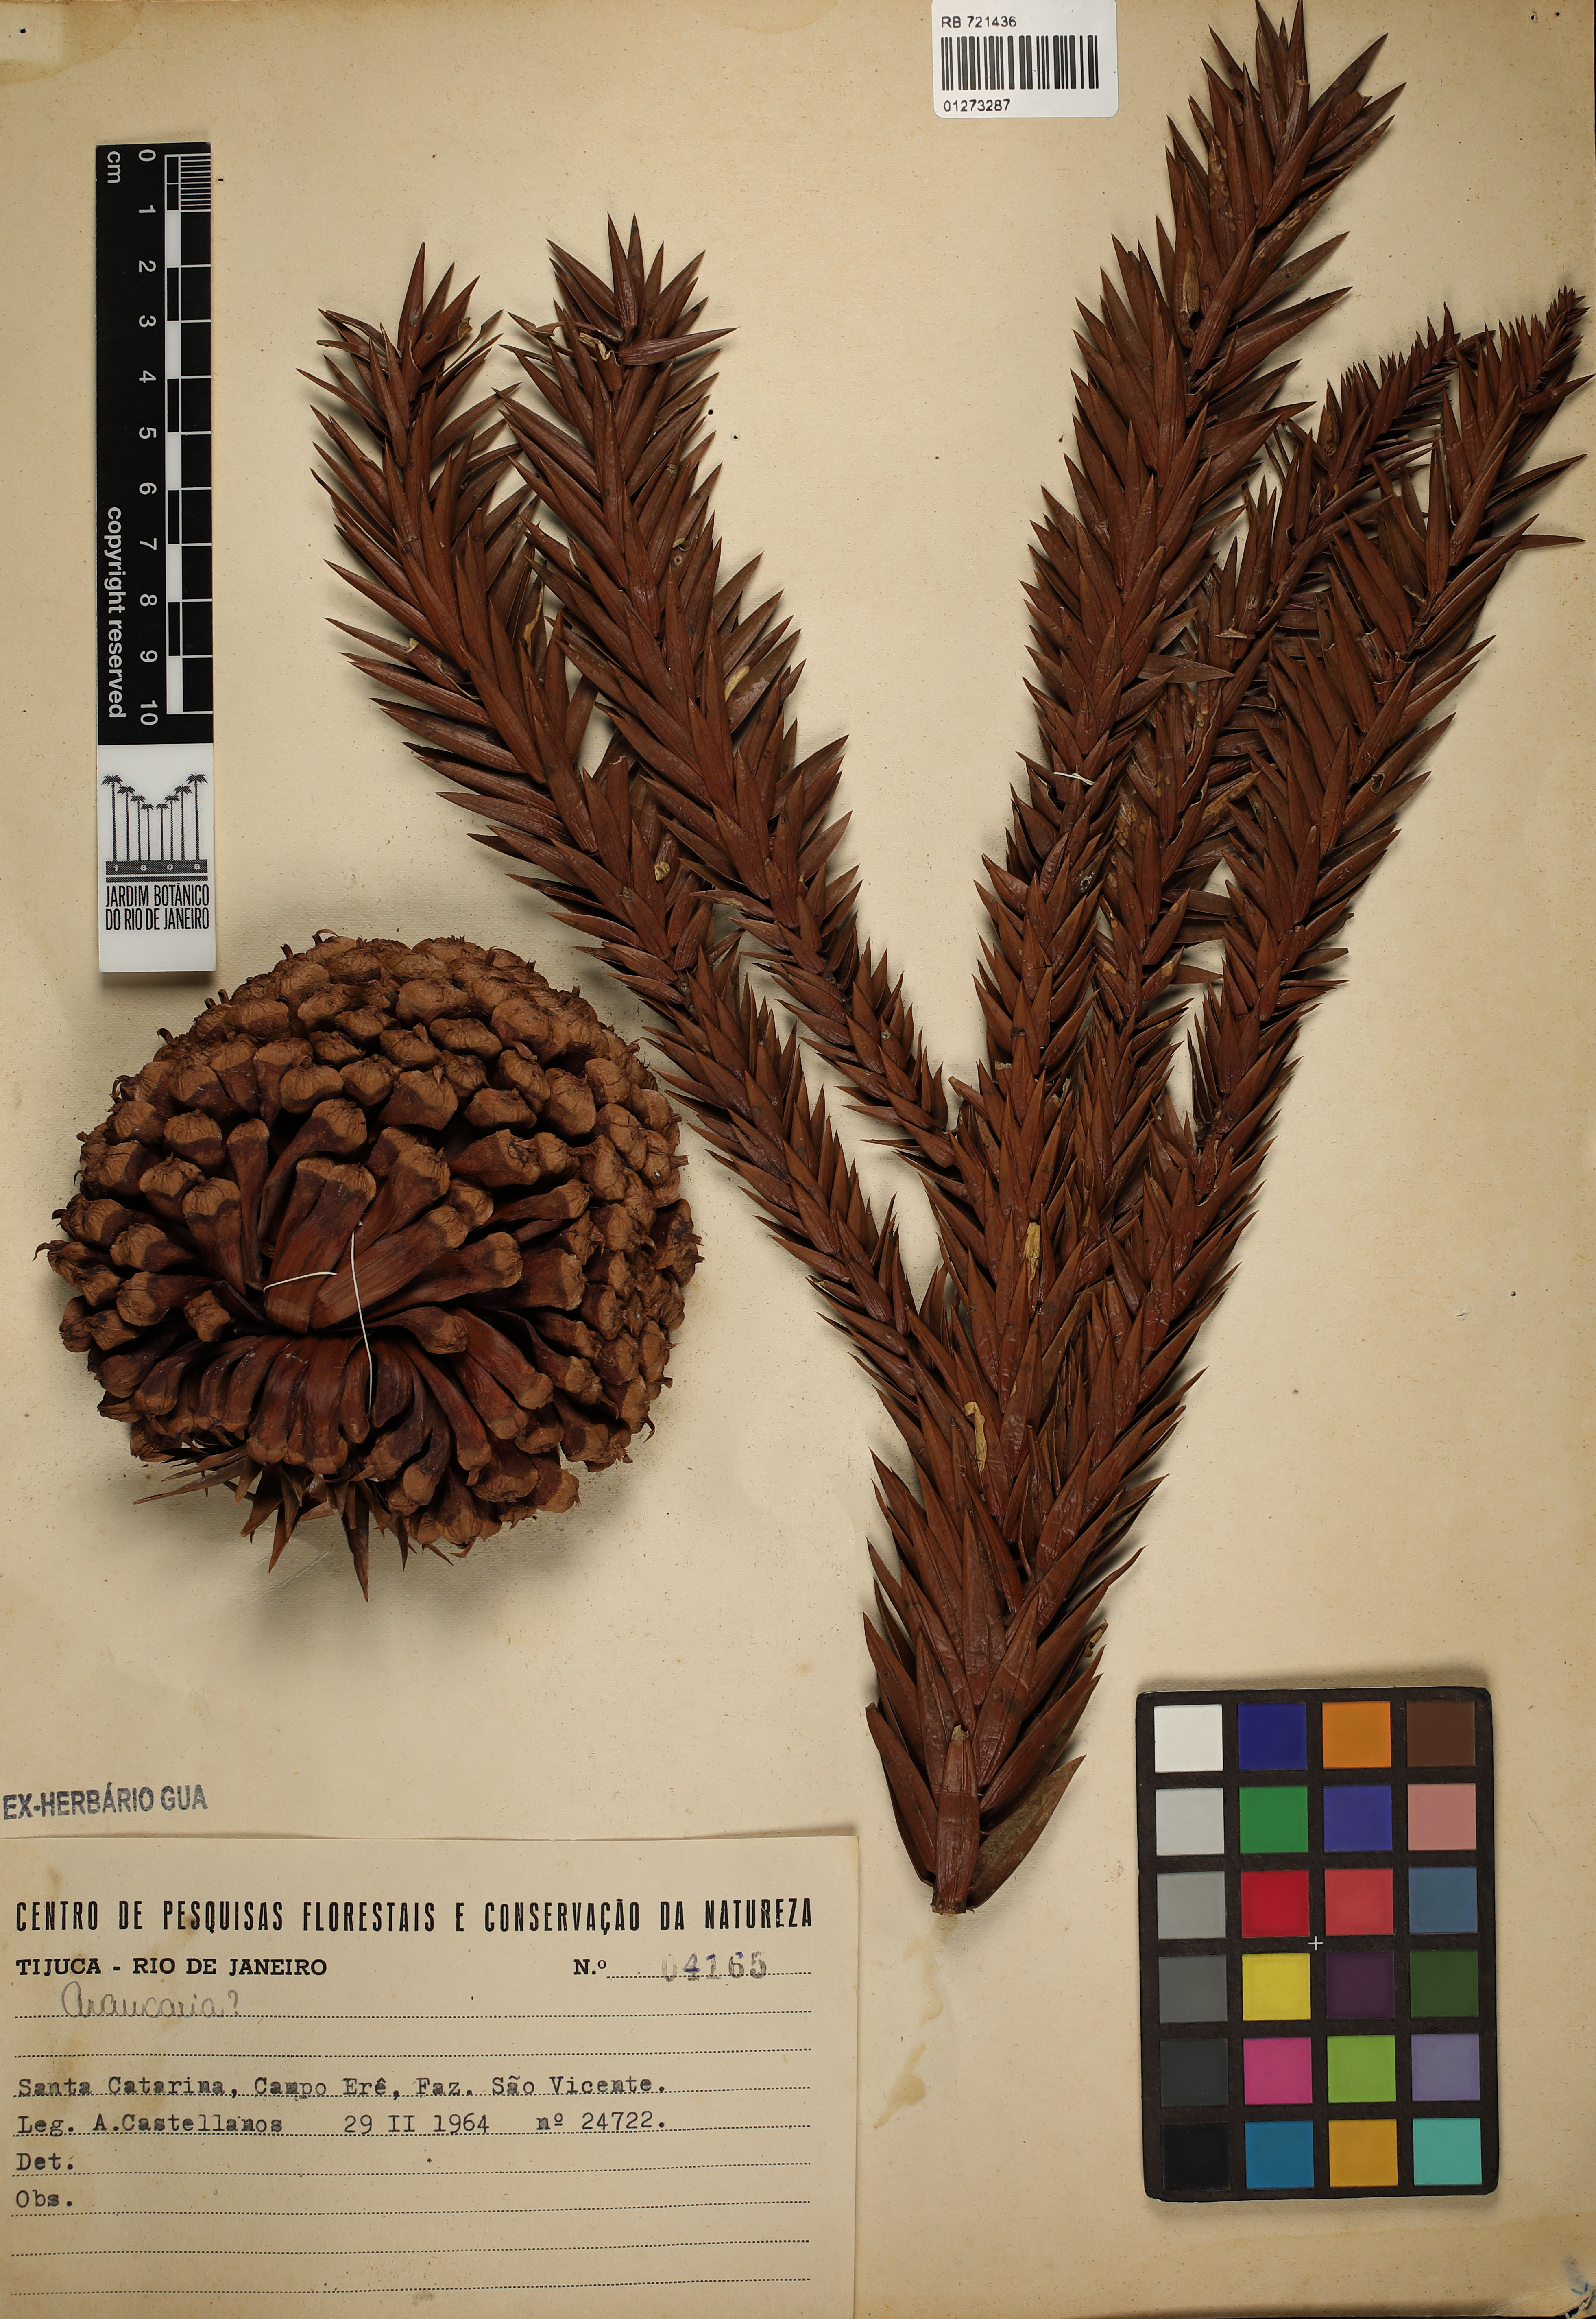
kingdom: Plantae
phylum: Tracheophyta
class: Pinopsida
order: Pinales
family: Araucariaceae
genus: Araucaria
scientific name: Araucaria
